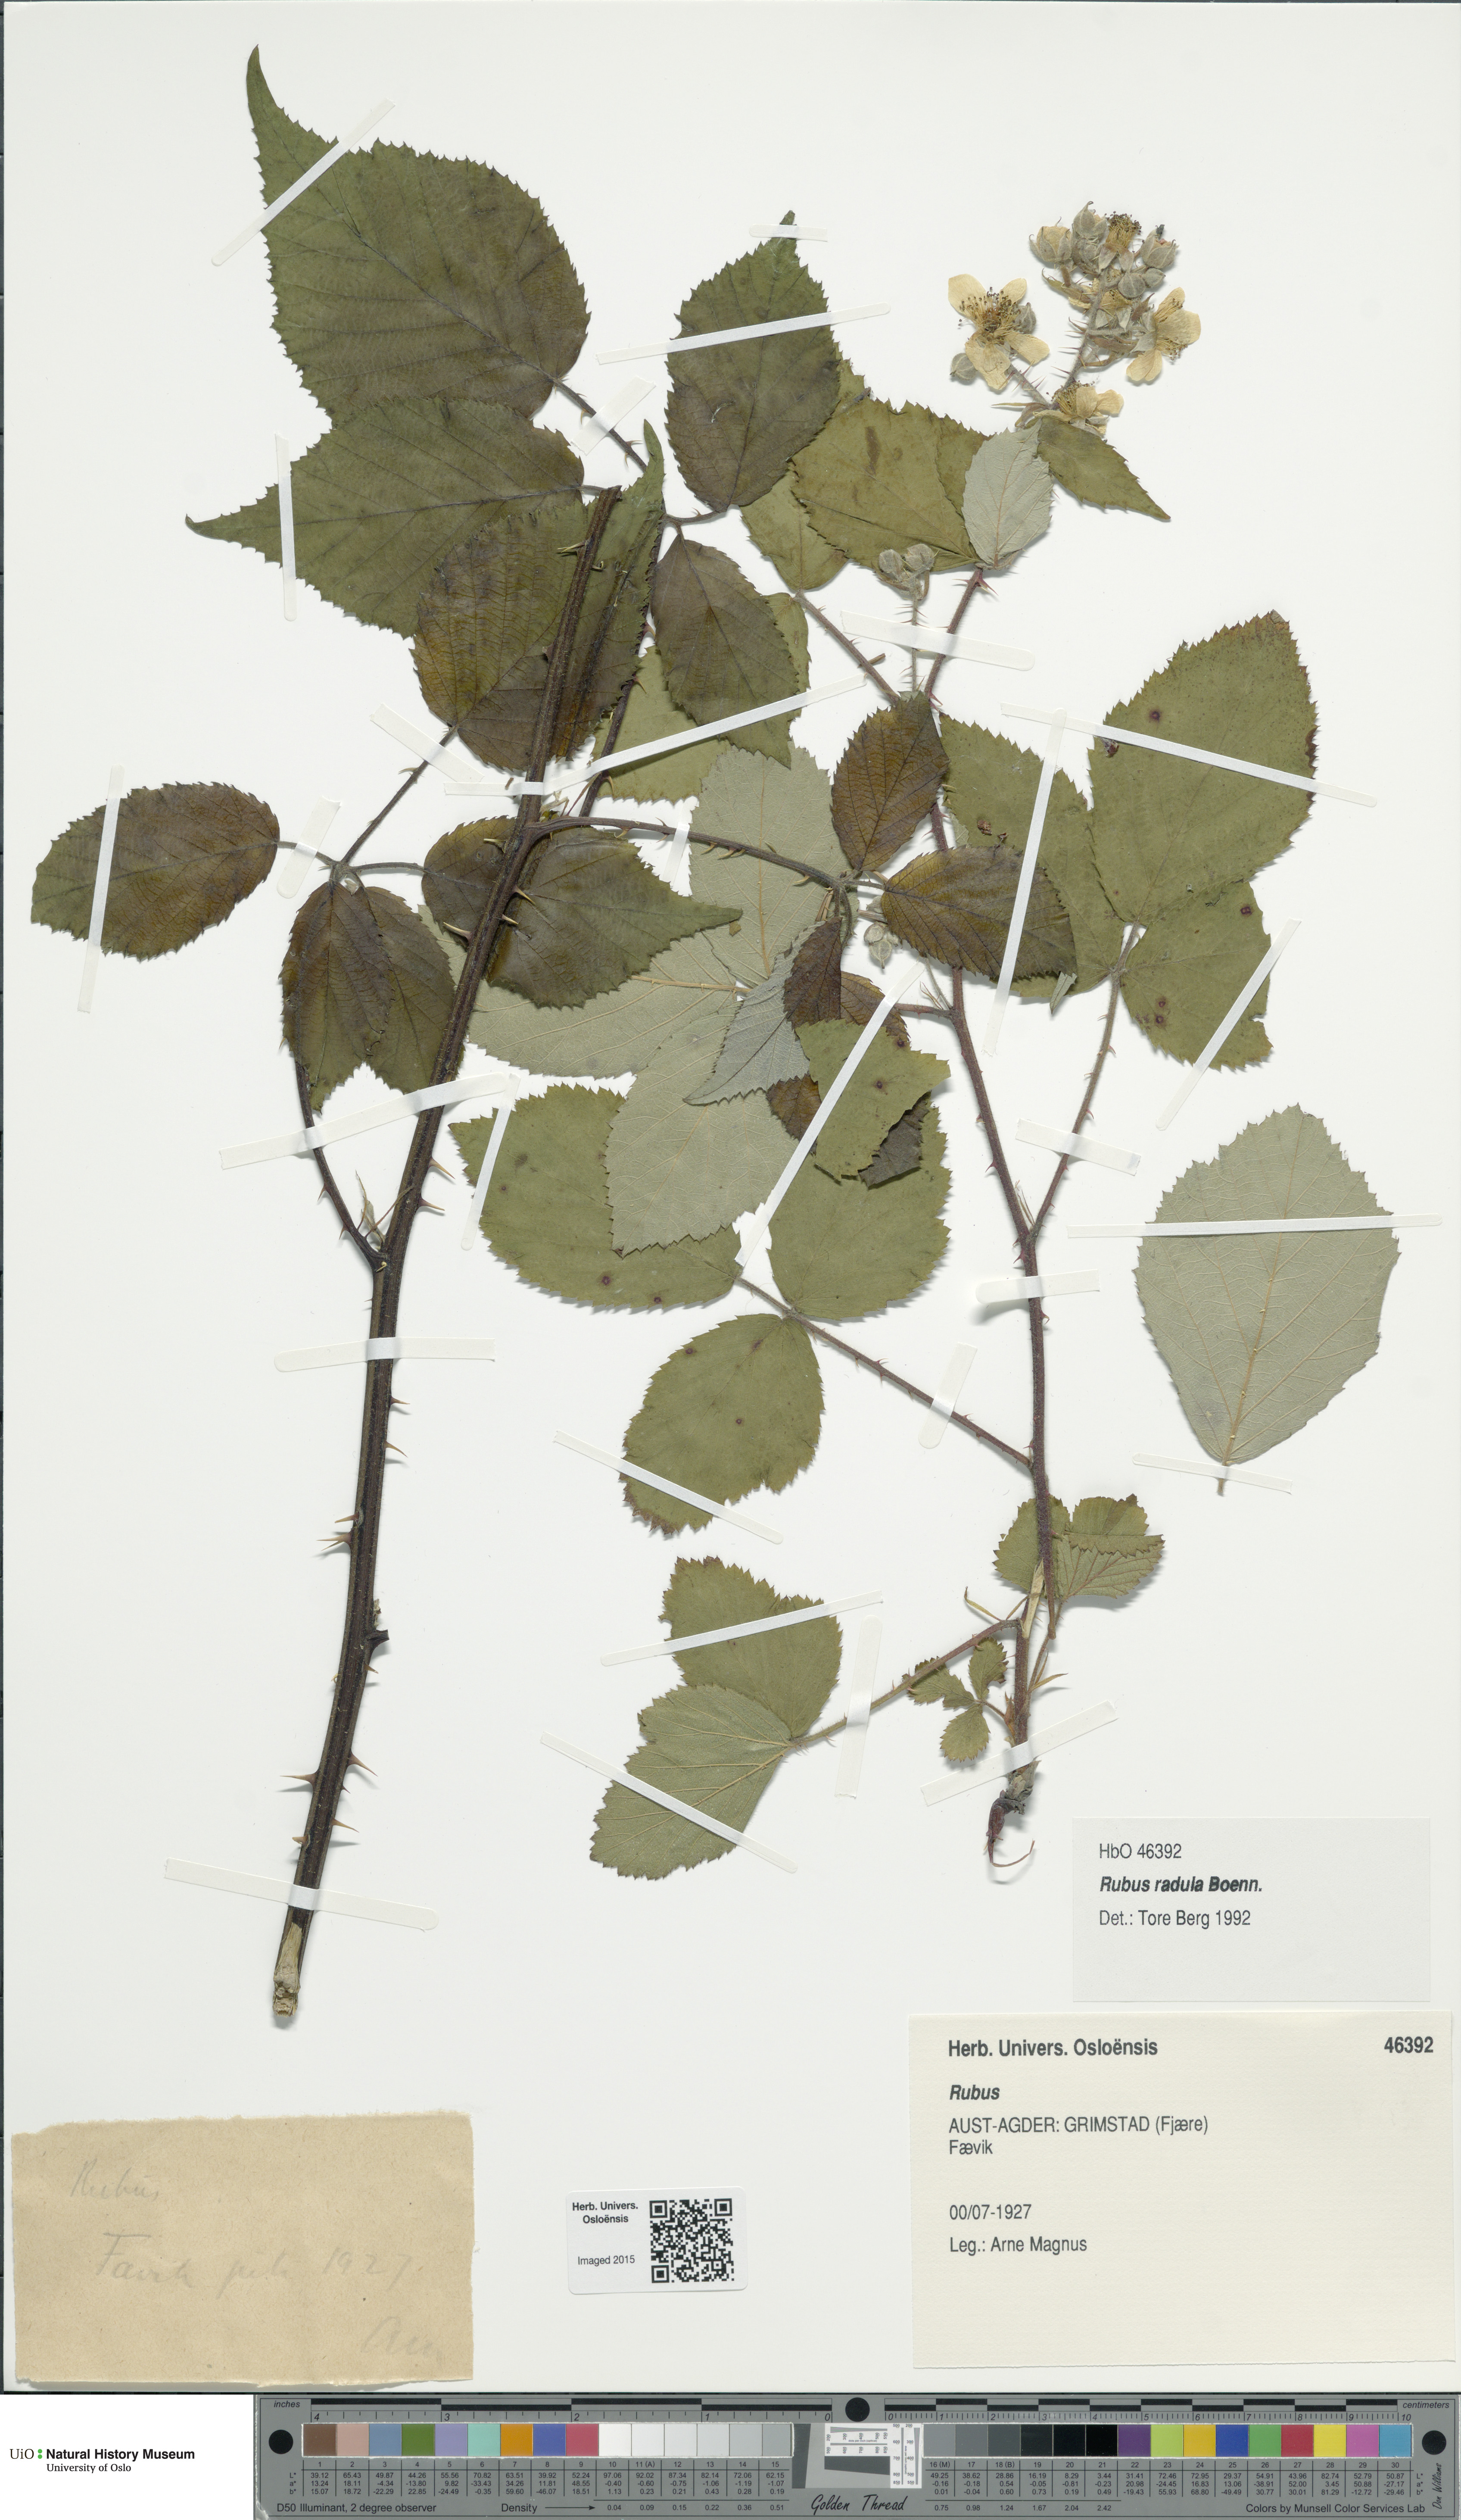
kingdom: Plantae
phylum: Tracheophyta
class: Magnoliopsida
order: Rosales
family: Rosaceae
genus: Rubus
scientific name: Rubus radula
